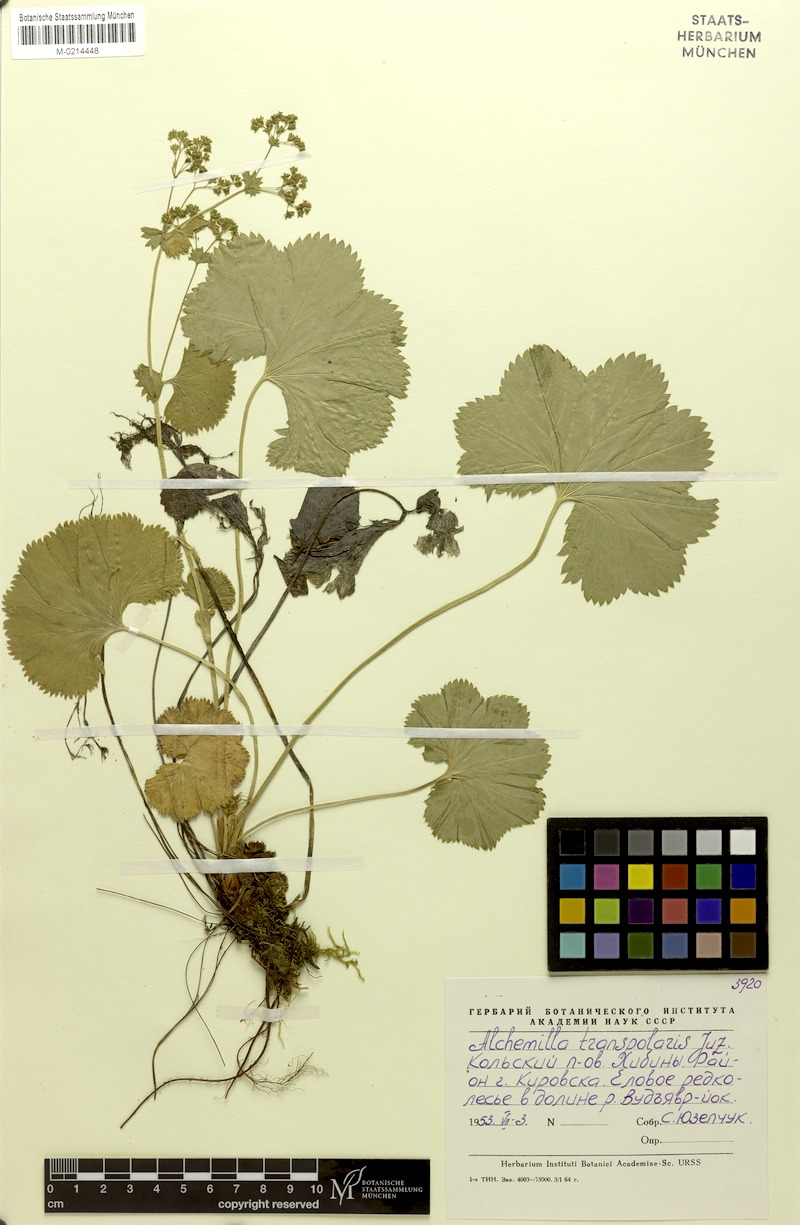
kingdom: Plantae
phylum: Tracheophyta
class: Magnoliopsida
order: Rosales
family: Rosaceae
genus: Alchemilla
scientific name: Alchemilla transpolaris
